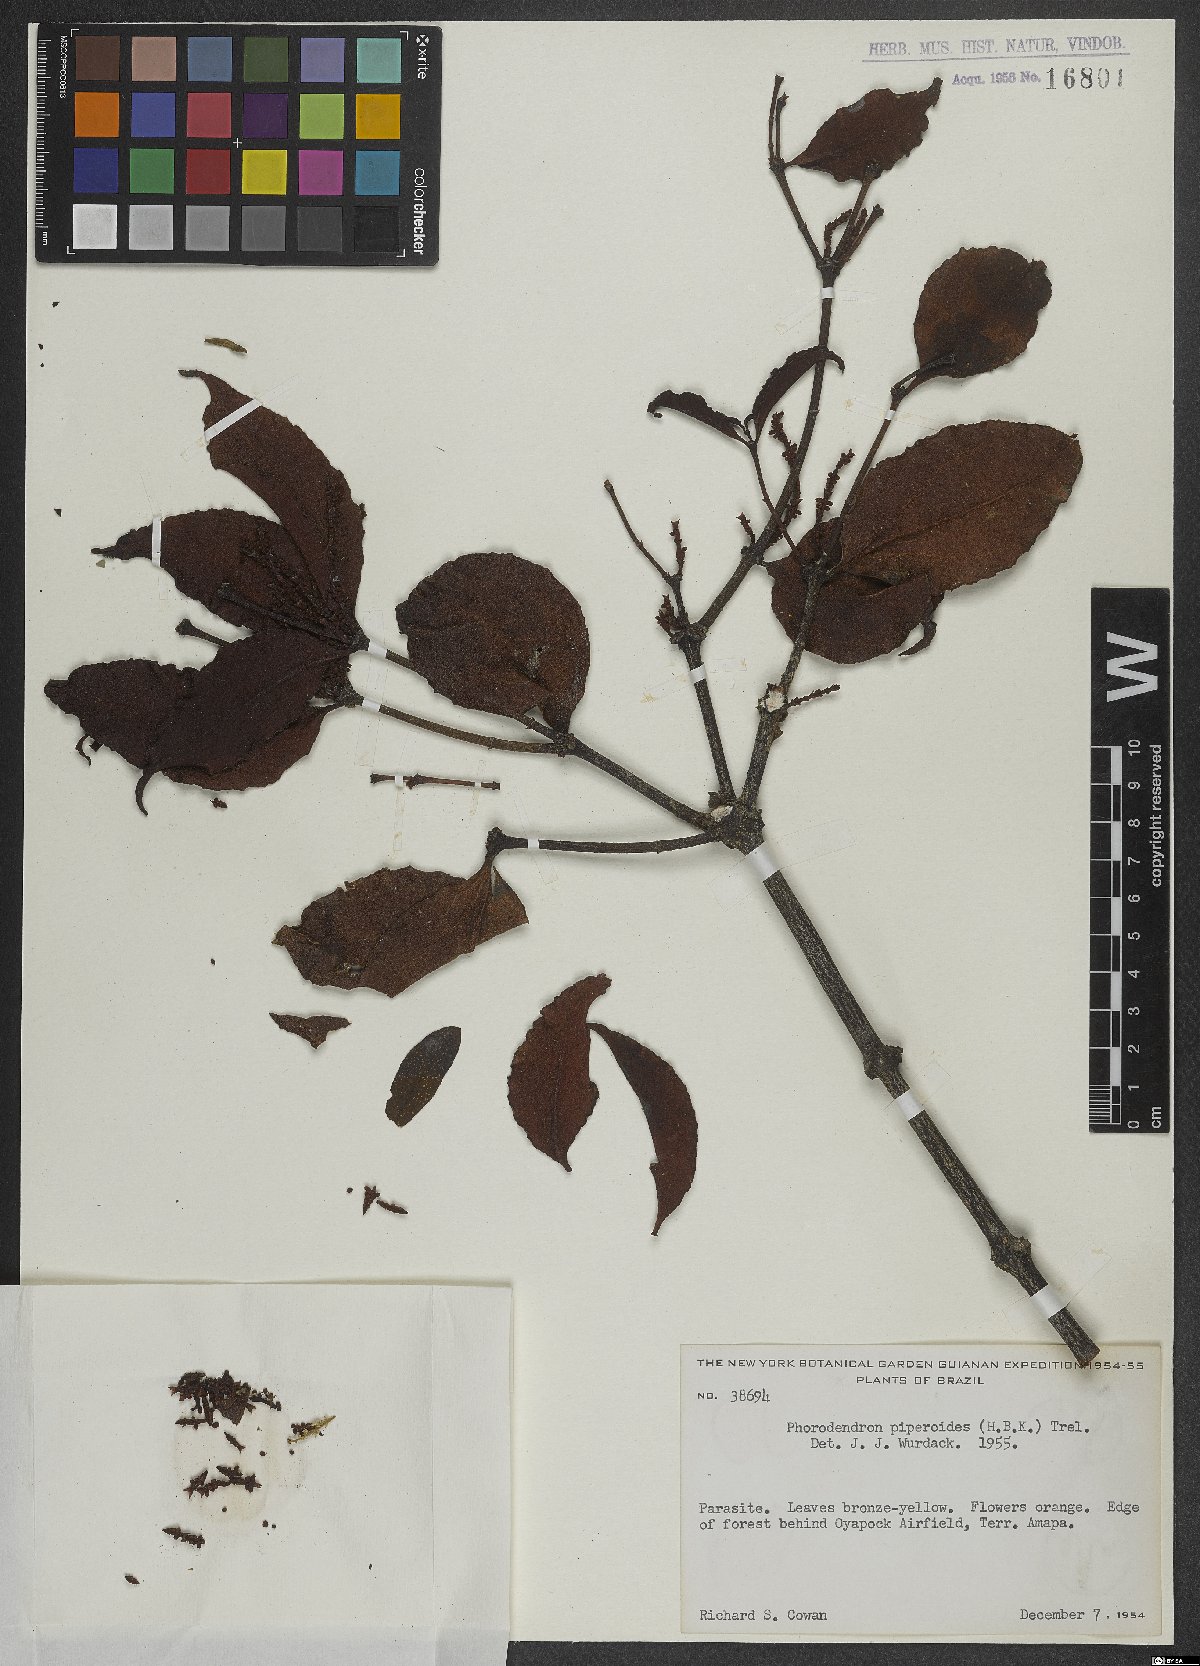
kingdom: Plantae
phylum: Tracheophyta
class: Magnoliopsida
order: Santalales
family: Viscaceae
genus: Phoradendron
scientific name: Phoradendron piperoides
